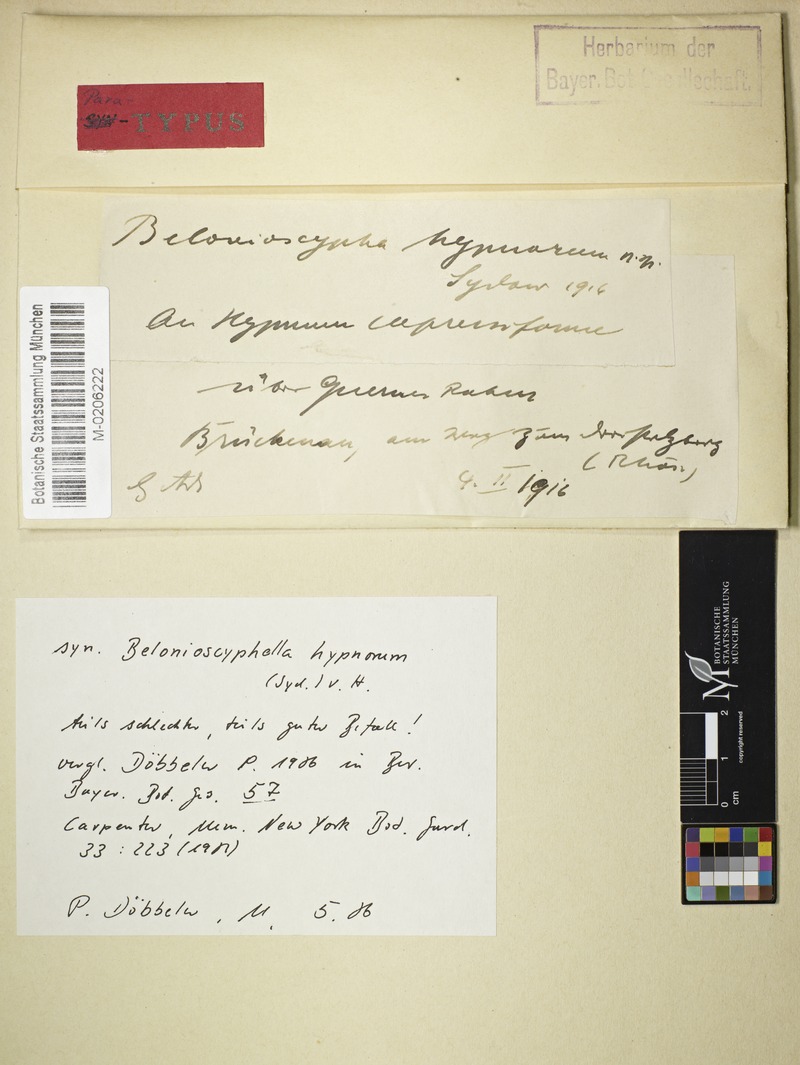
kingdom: Fungi
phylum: Ascomycota
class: Leotiomycetes
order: Helotiales
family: Helotiaceae
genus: Belonioscyphella
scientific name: Belonioscyphella hypnorum
